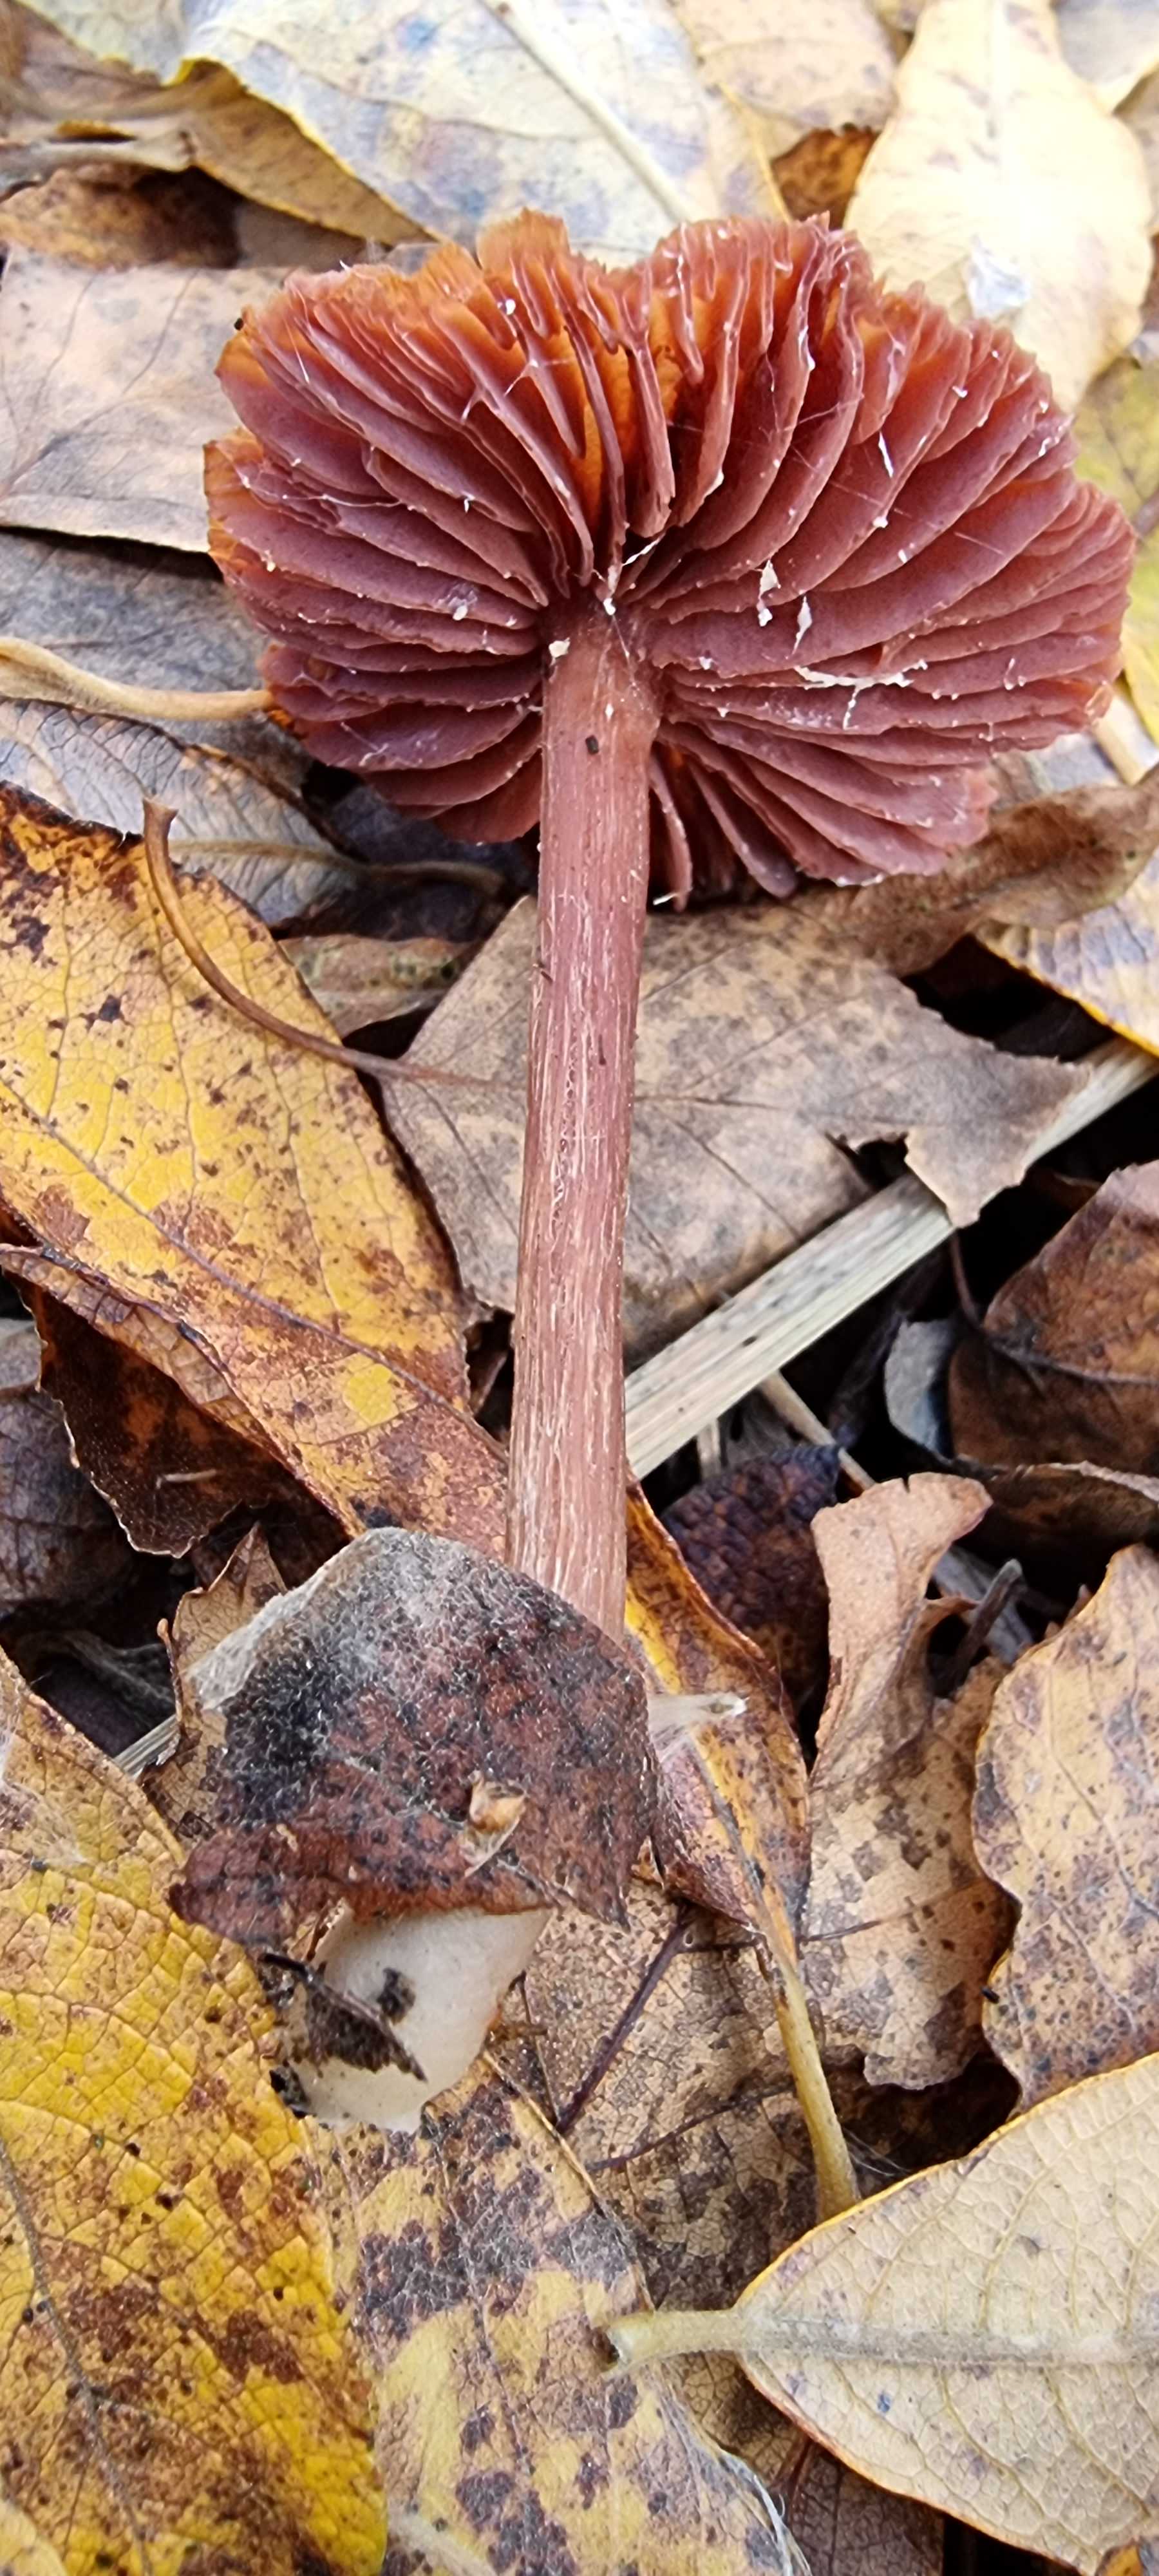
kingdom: Fungi
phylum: Basidiomycota
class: Agaricomycetes
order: Agaricales
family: Hydnangiaceae
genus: Laccaria
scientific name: Laccaria
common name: ametysthat
